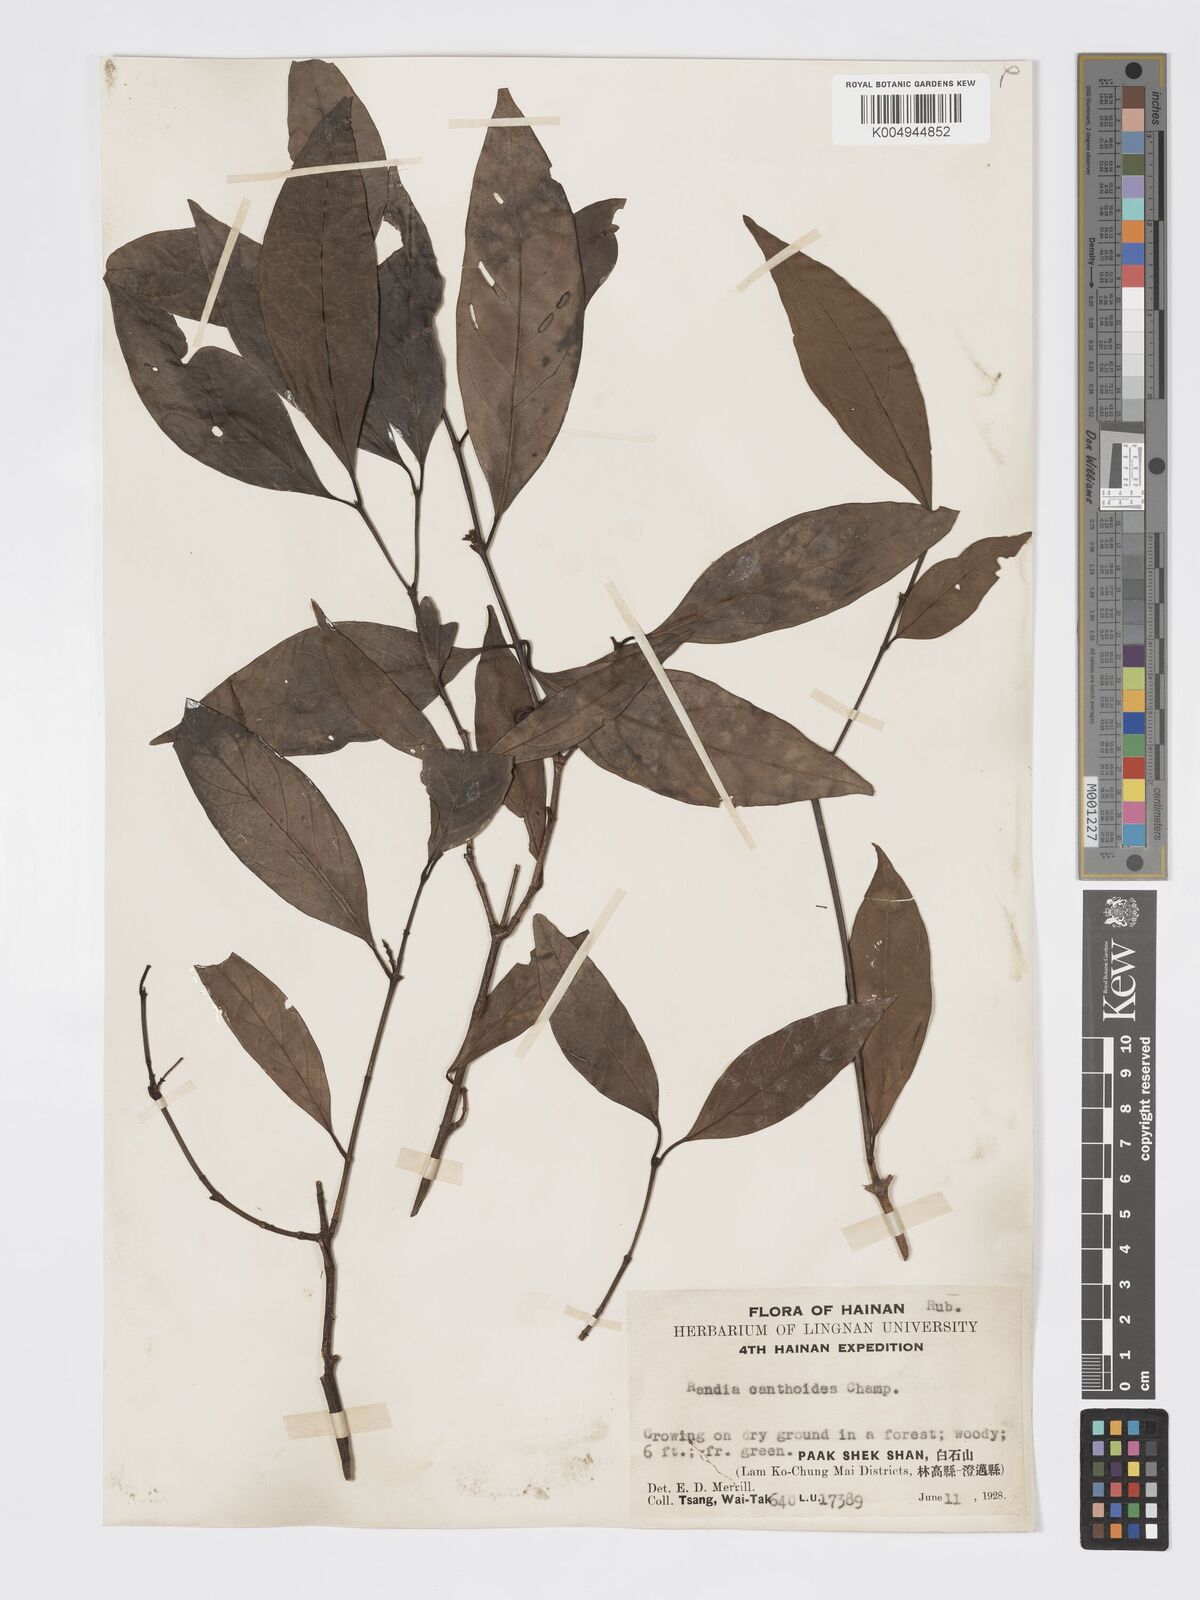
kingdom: Plantae
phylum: Tracheophyta
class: Magnoliopsida
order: Gentianales
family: Rubiaceae
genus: Aidia
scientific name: Aidia canthioides
